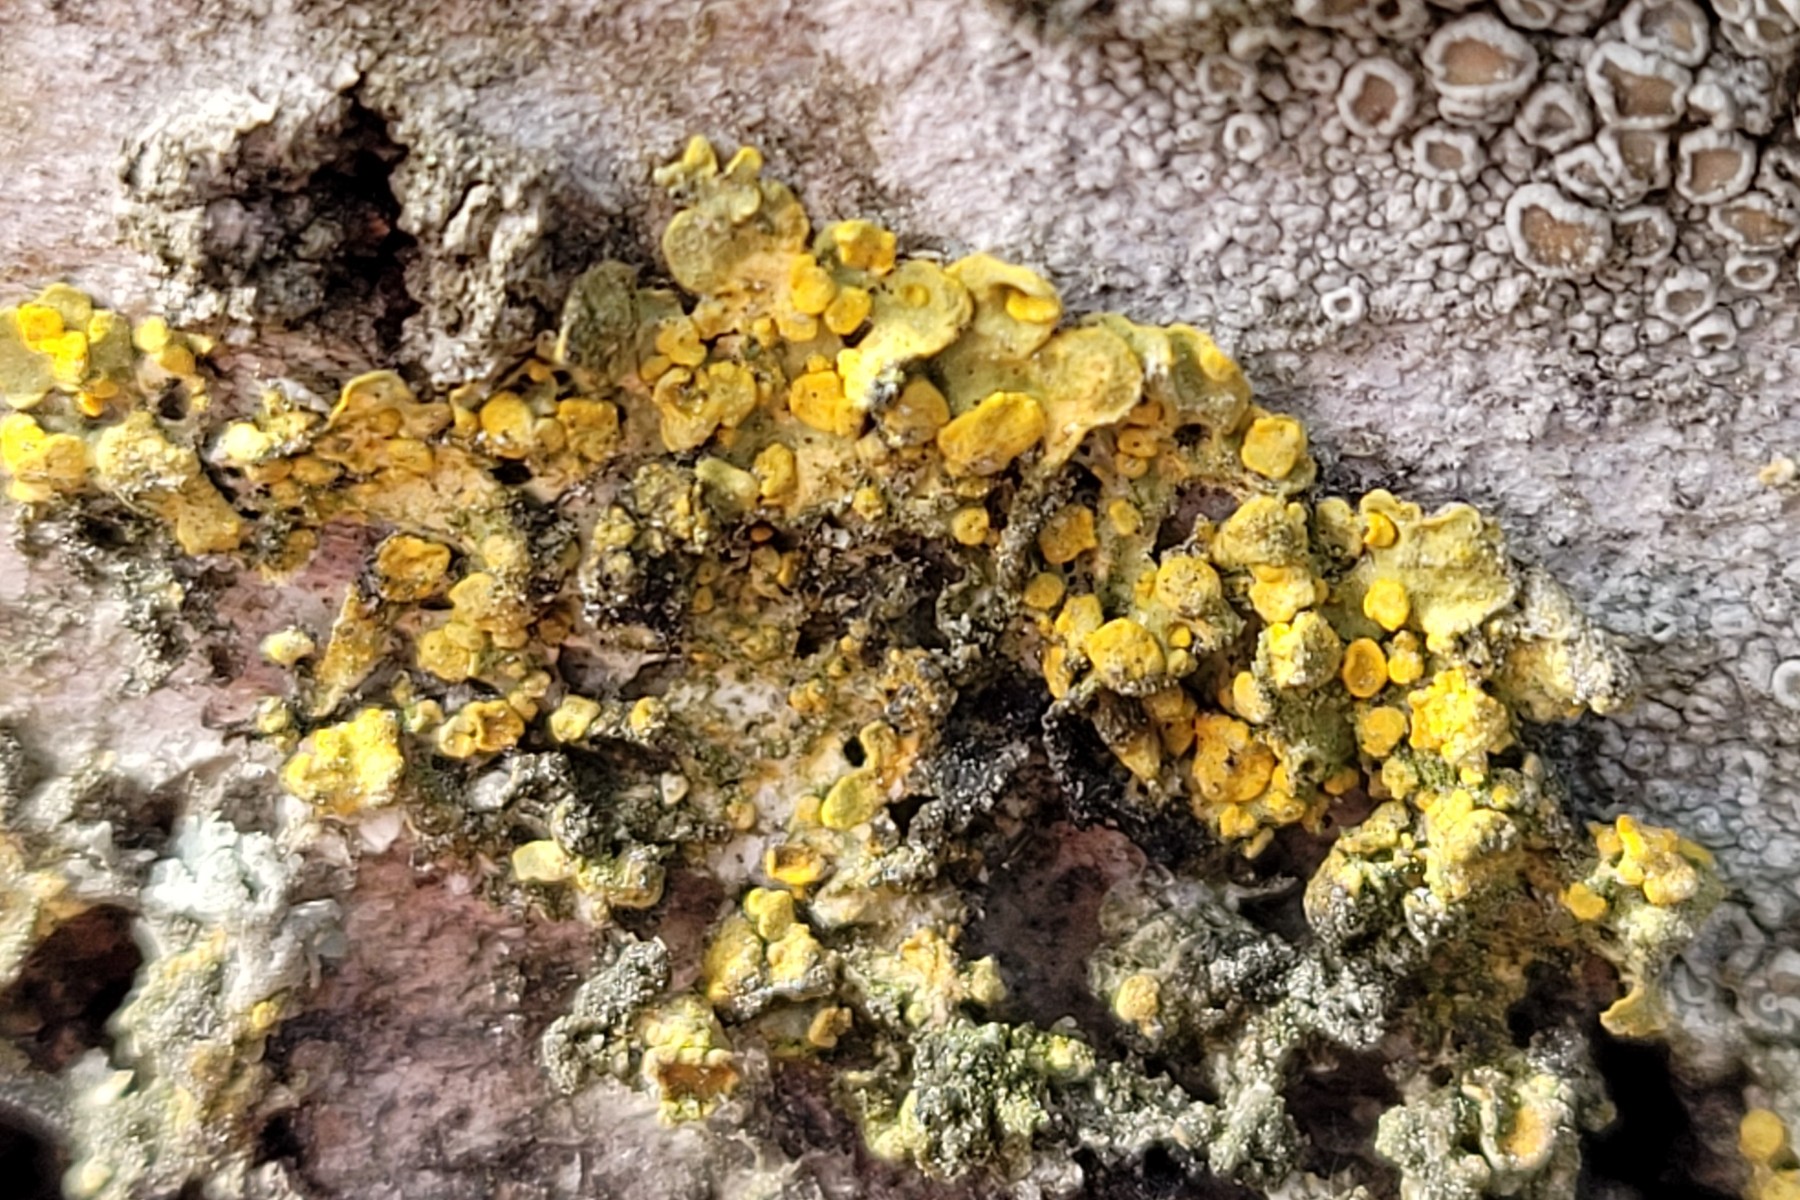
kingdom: Fungi
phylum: Ascomycota
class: Eurotiomycetes
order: Verrucariales
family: Verrucariaceae
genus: Telogalla
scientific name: Telogalla olivieri
